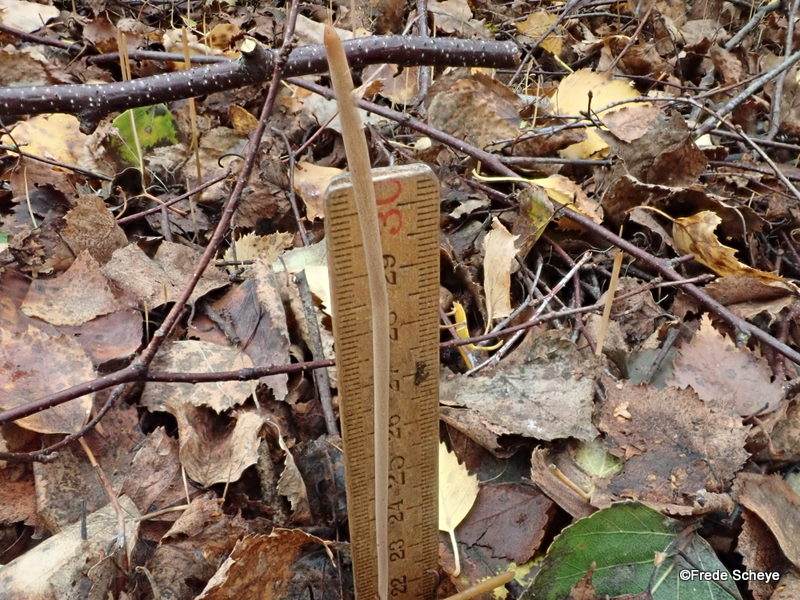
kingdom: Fungi
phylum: Basidiomycota
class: Agaricomycetes
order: Agaricales
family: Typhulaceae
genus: Typhula
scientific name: Typhula fistulosa
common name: pibet rørkølle
